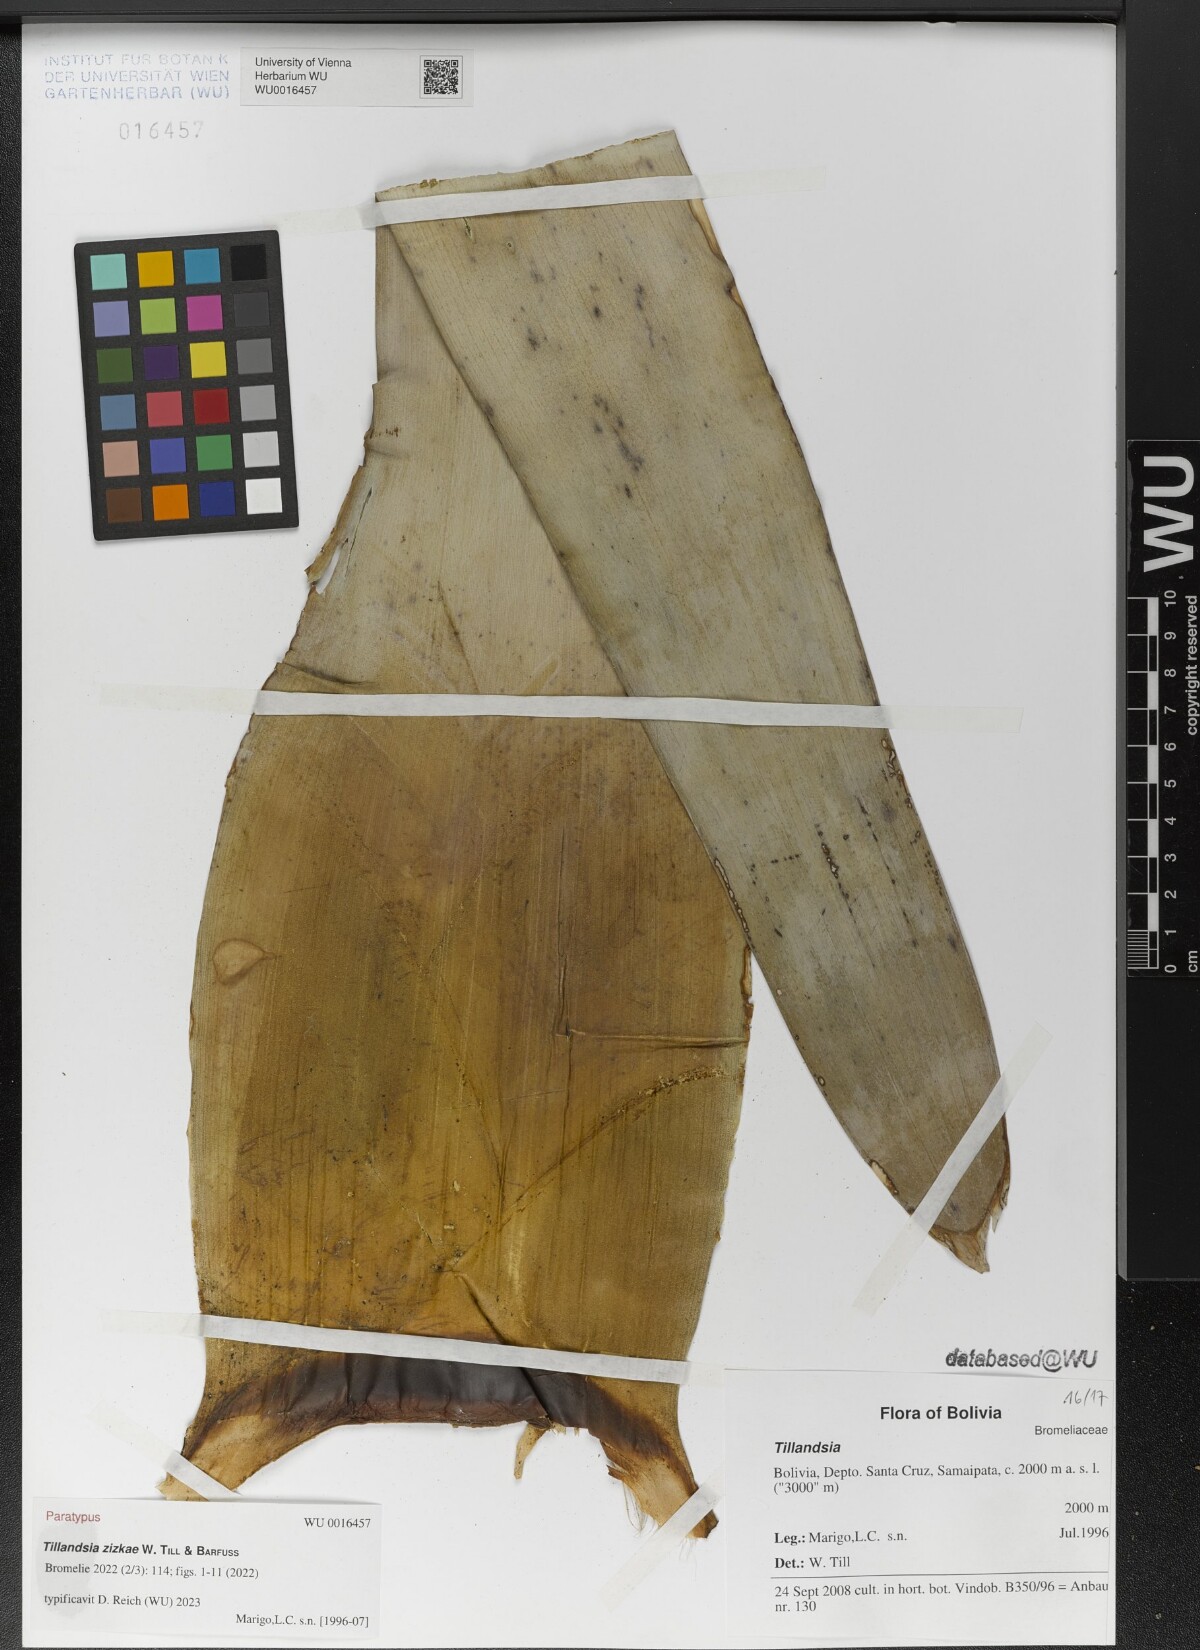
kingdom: Plantae
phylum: Tracheophyta
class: Liliopsida
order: Poales
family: Bromeliaceae
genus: Tillandsia
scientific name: Tillandsia
